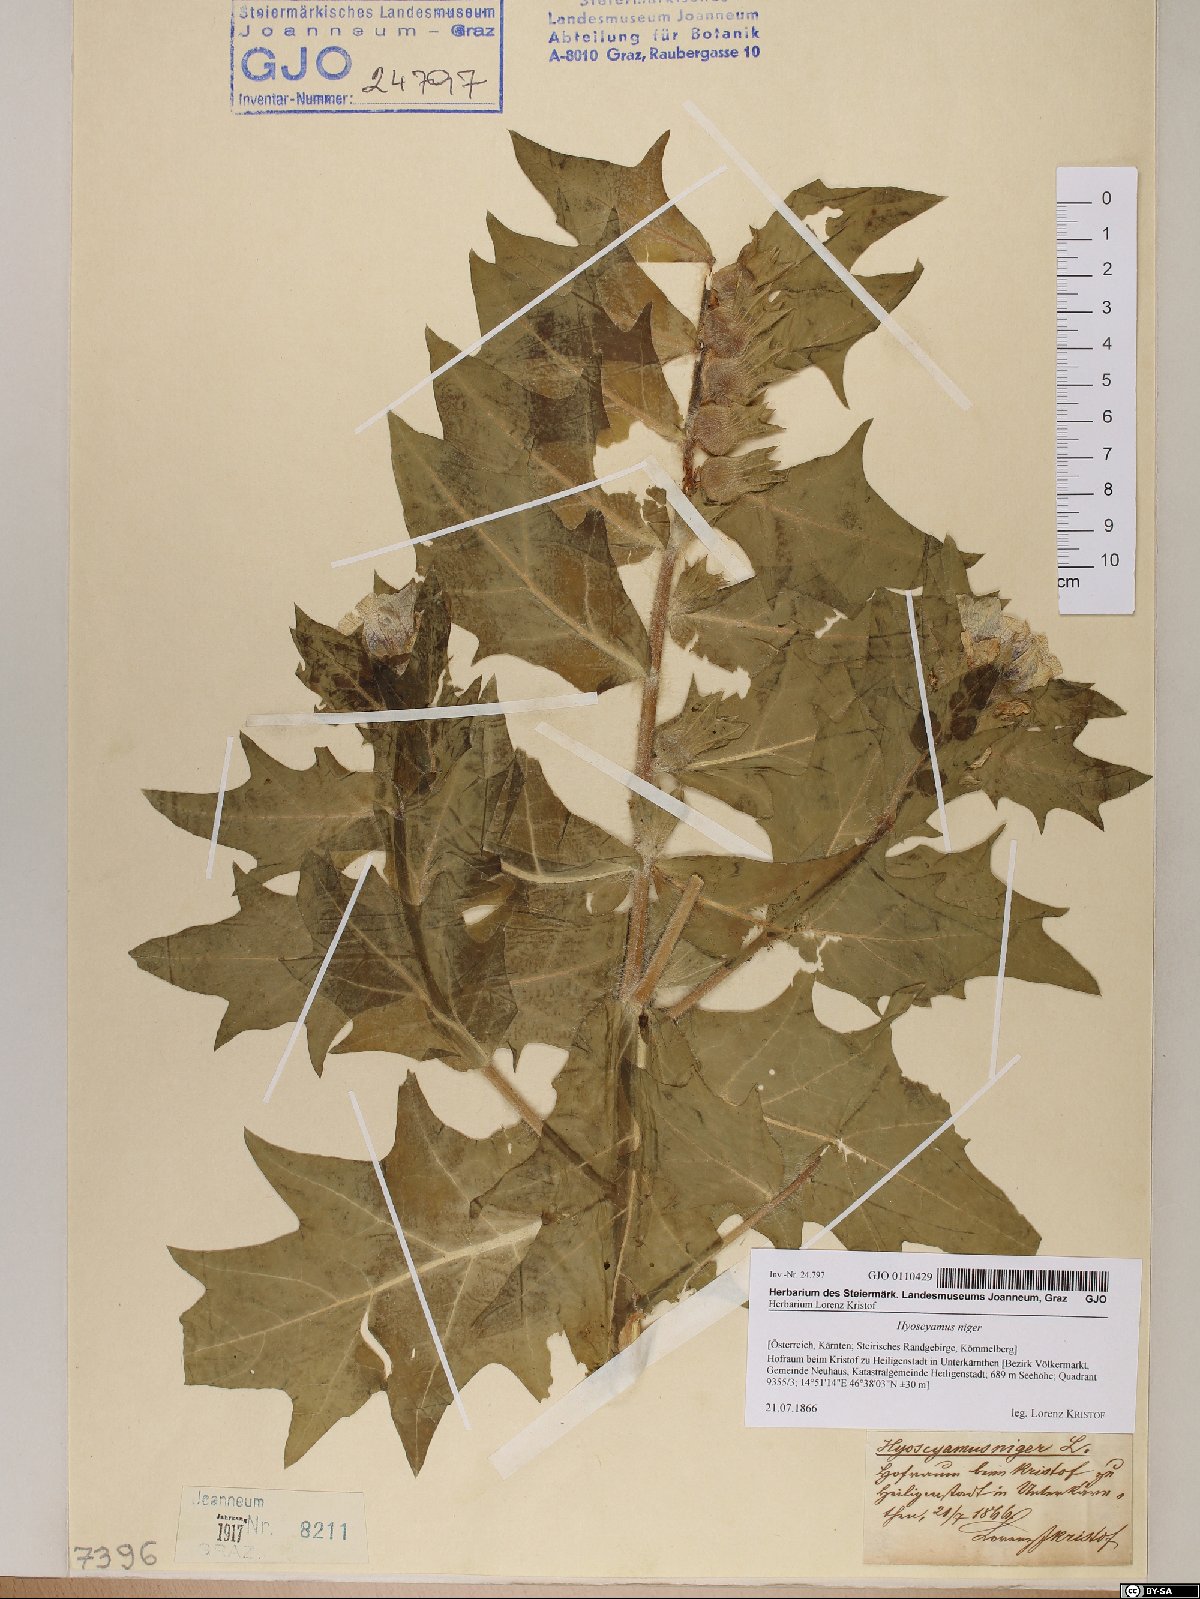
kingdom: Plantae
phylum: Tracheophyta
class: Magnoliopsida
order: Solanales
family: Solanaceae
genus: Hyoscyamus
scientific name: Hyoscyamus niger
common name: Henbane
